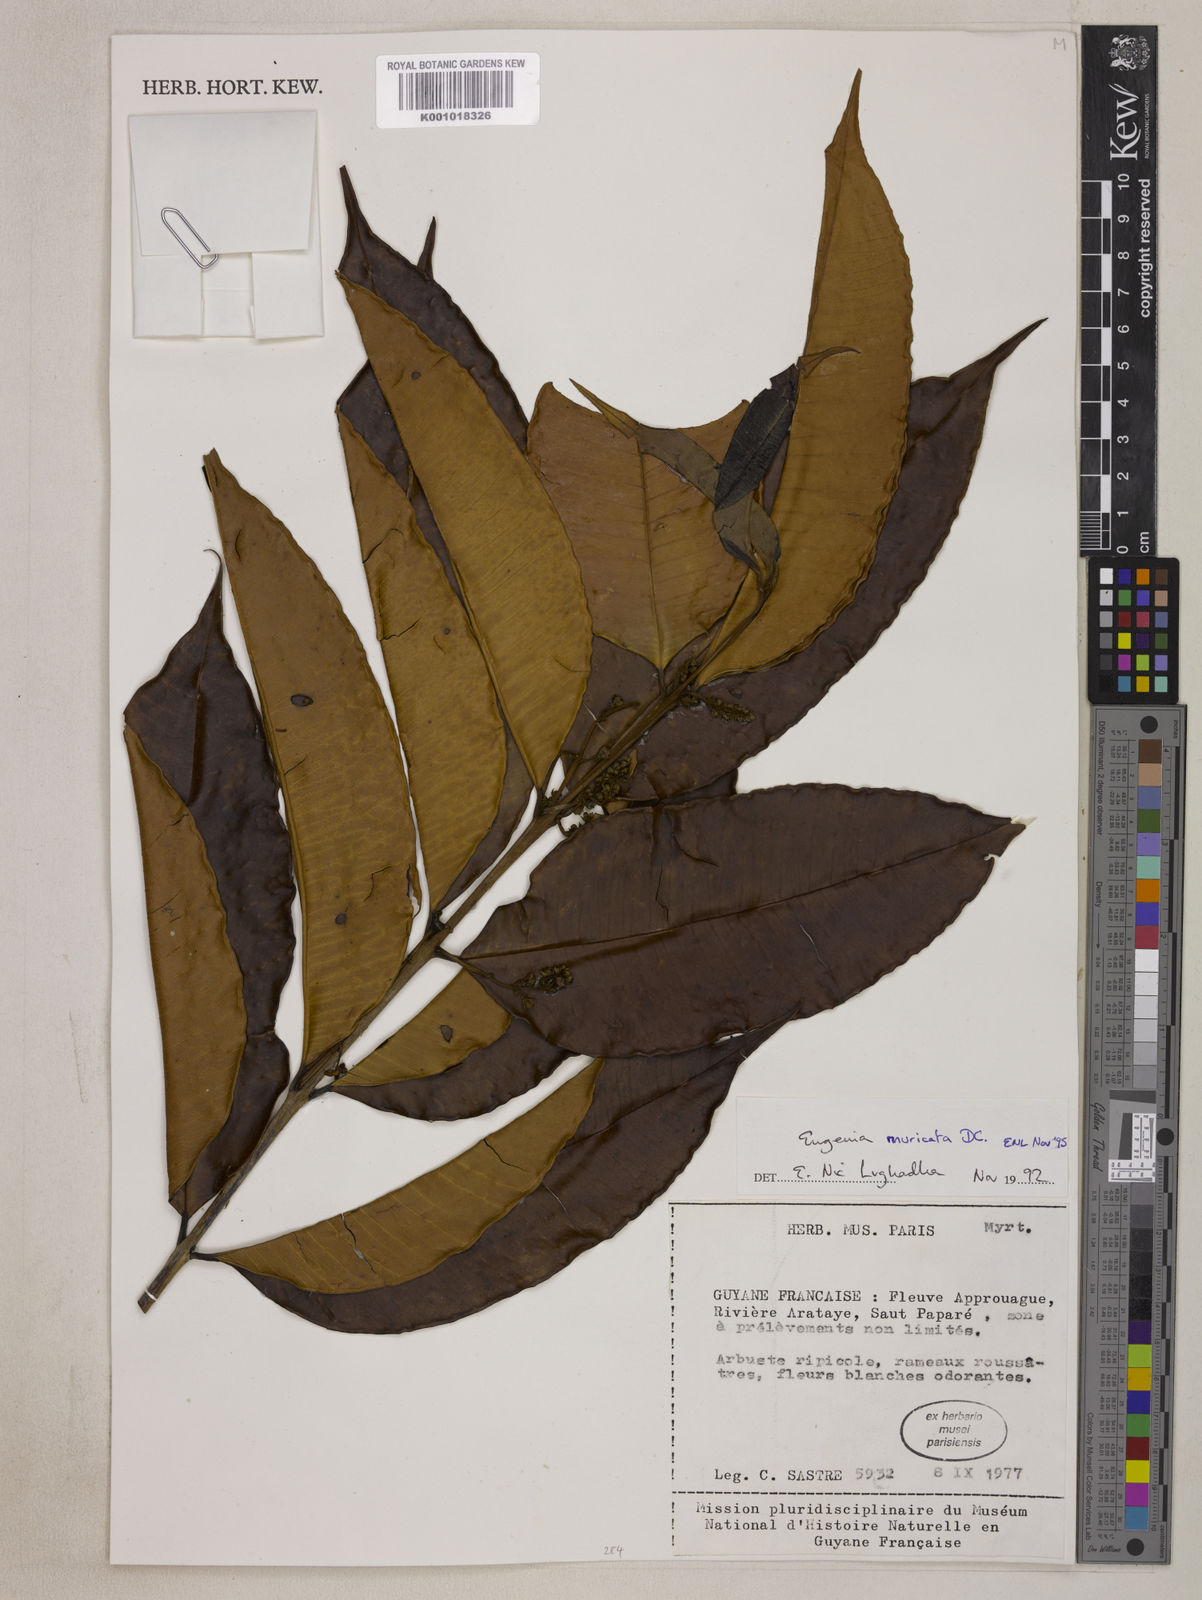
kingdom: Plantae
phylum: Tracheophyta
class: Magnoliopsida
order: Myrtales
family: Myrtaceae
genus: Eugenia
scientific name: Eugenia muricata
